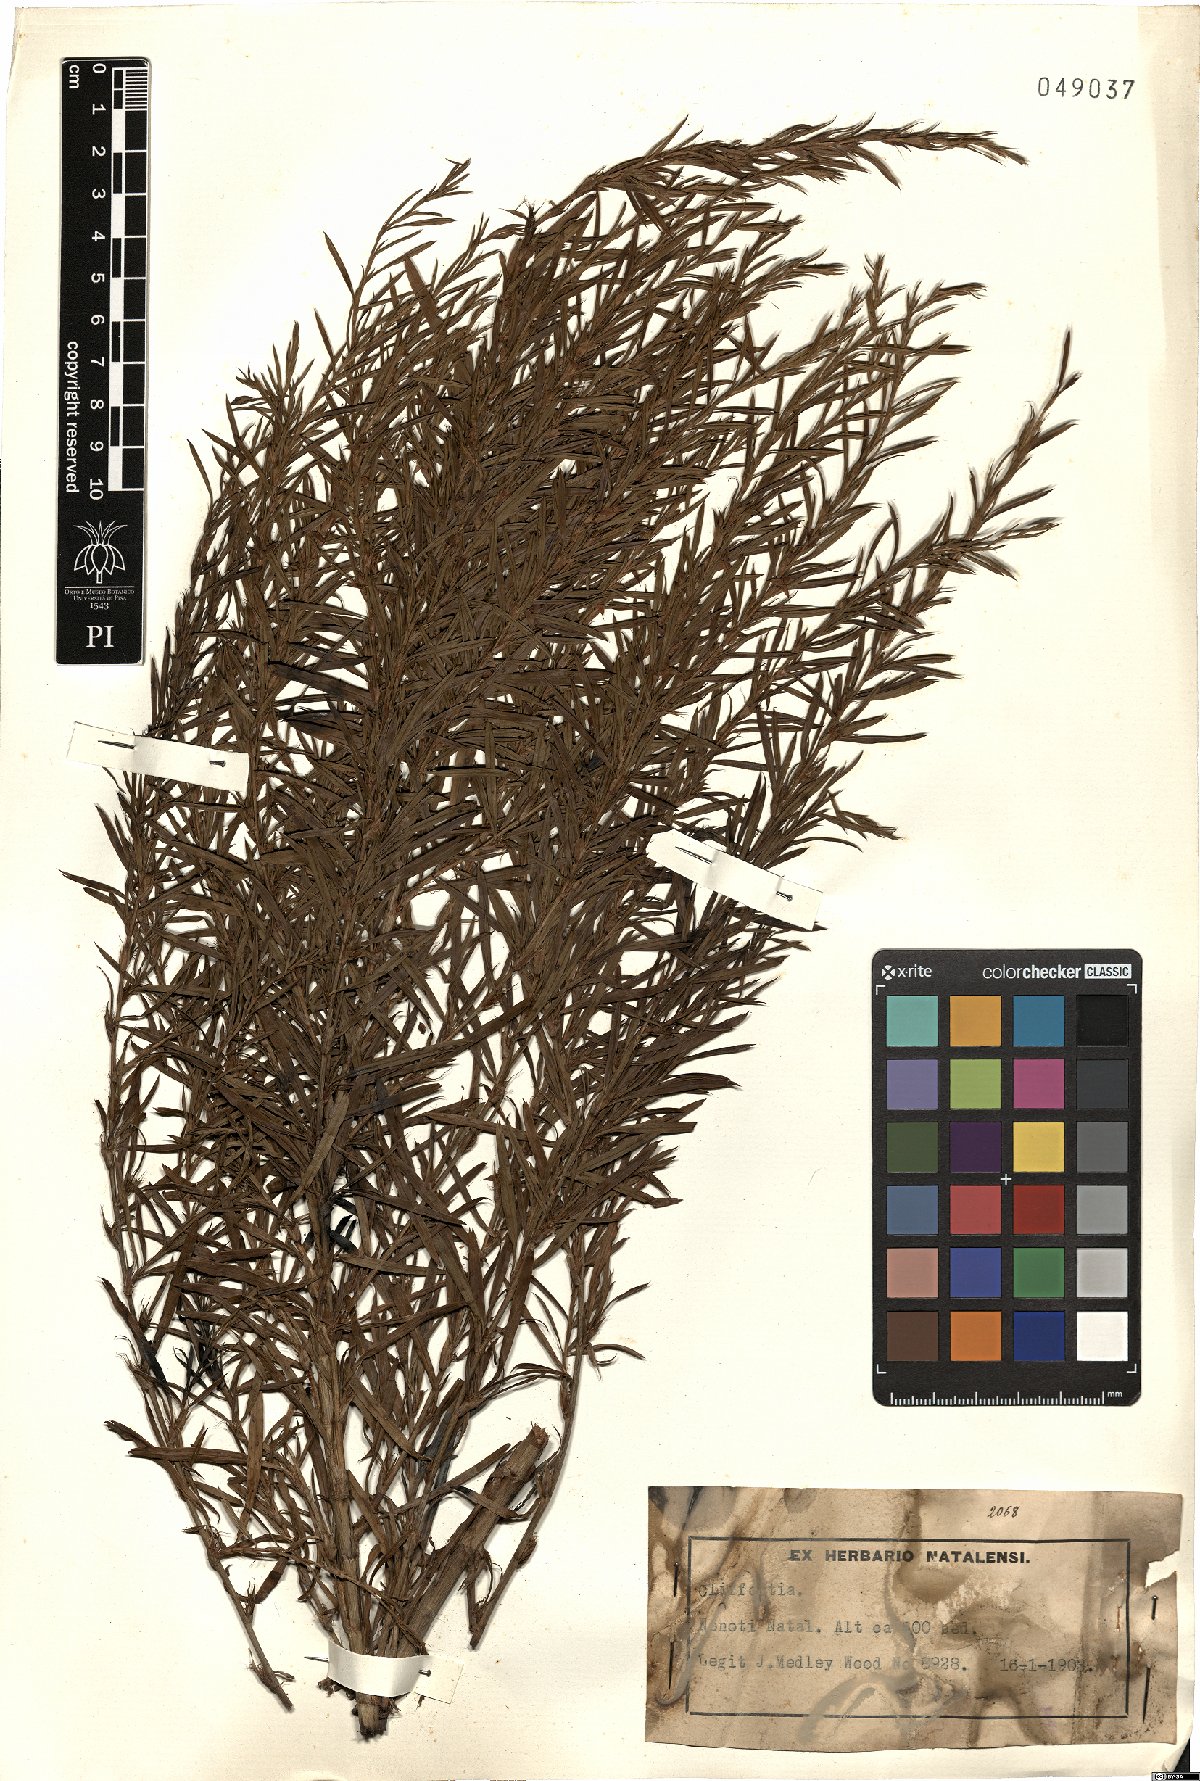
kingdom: Plantae
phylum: Tracheophyta
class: Magnoliopsida
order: Rosales
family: Rosaceae
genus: Cliffortia
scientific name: Cliffortia
